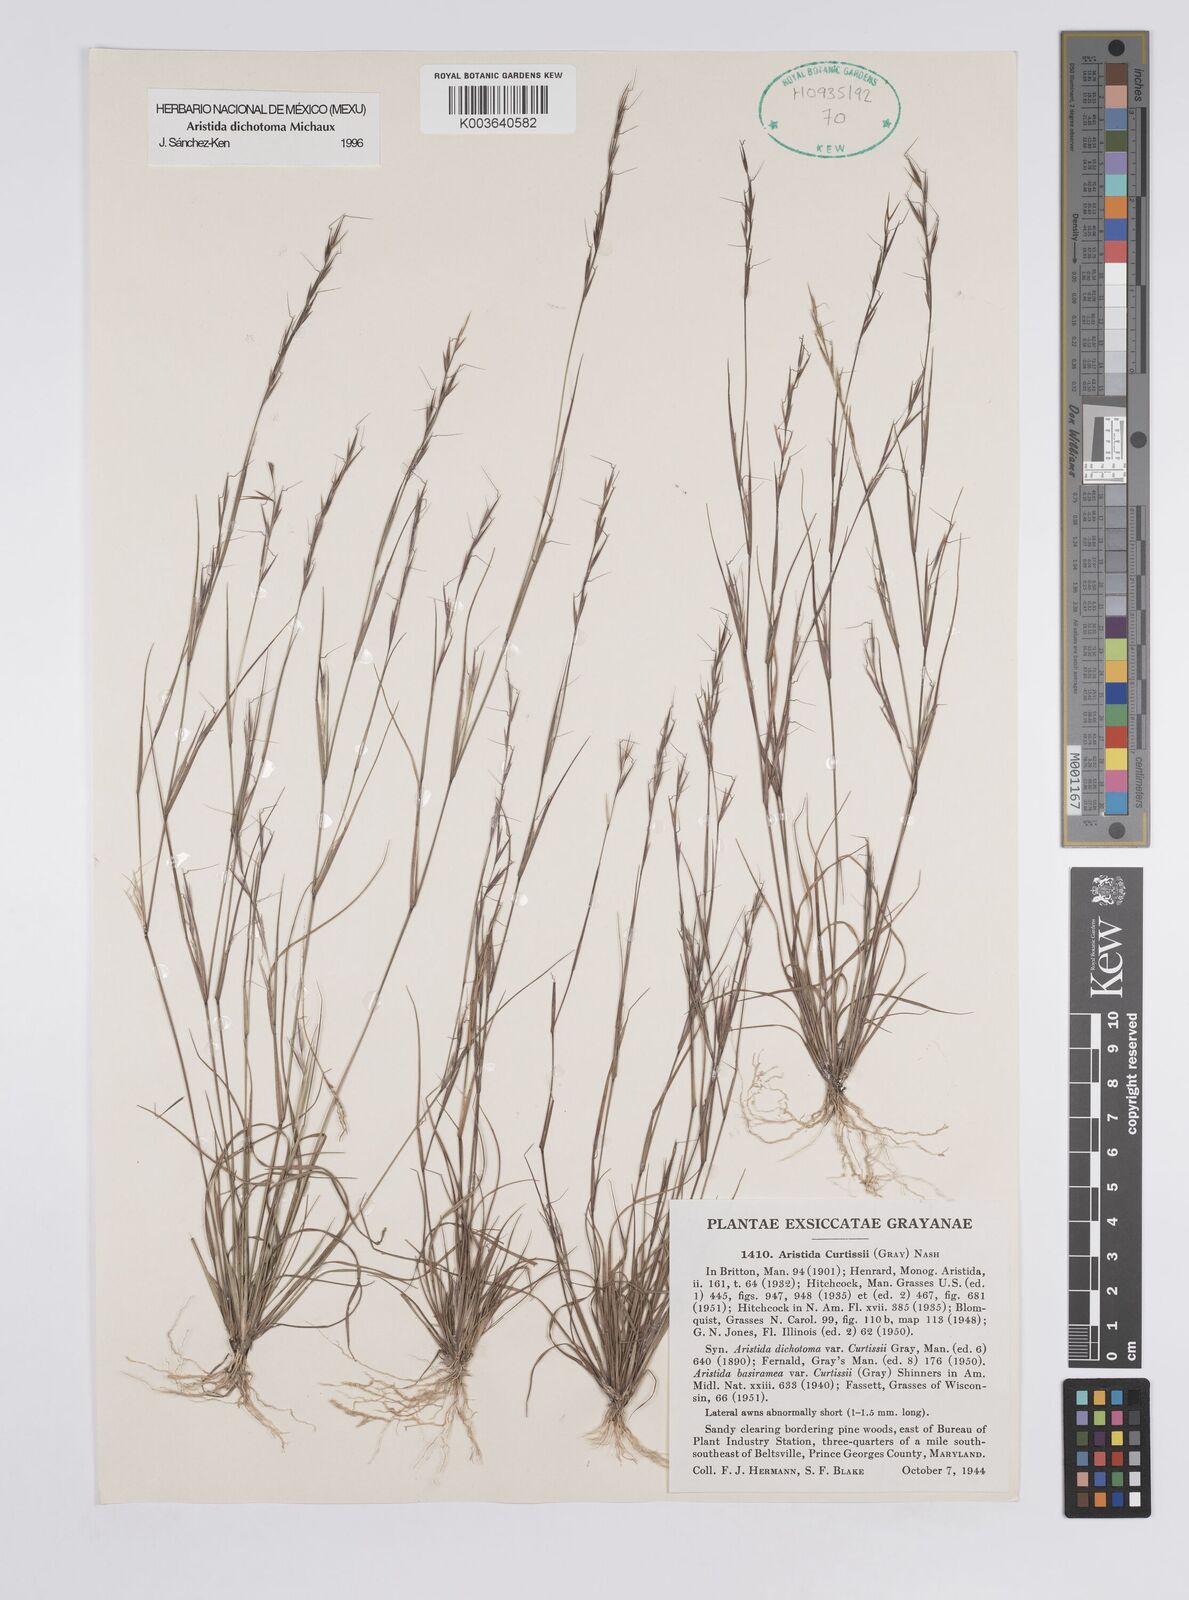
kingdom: Plantae
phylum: Tracheophyta
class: Liliopsida
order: Poales
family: Poaceae
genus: Aristida
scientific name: Aristida dichotoma
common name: Churchmouse three-awn
